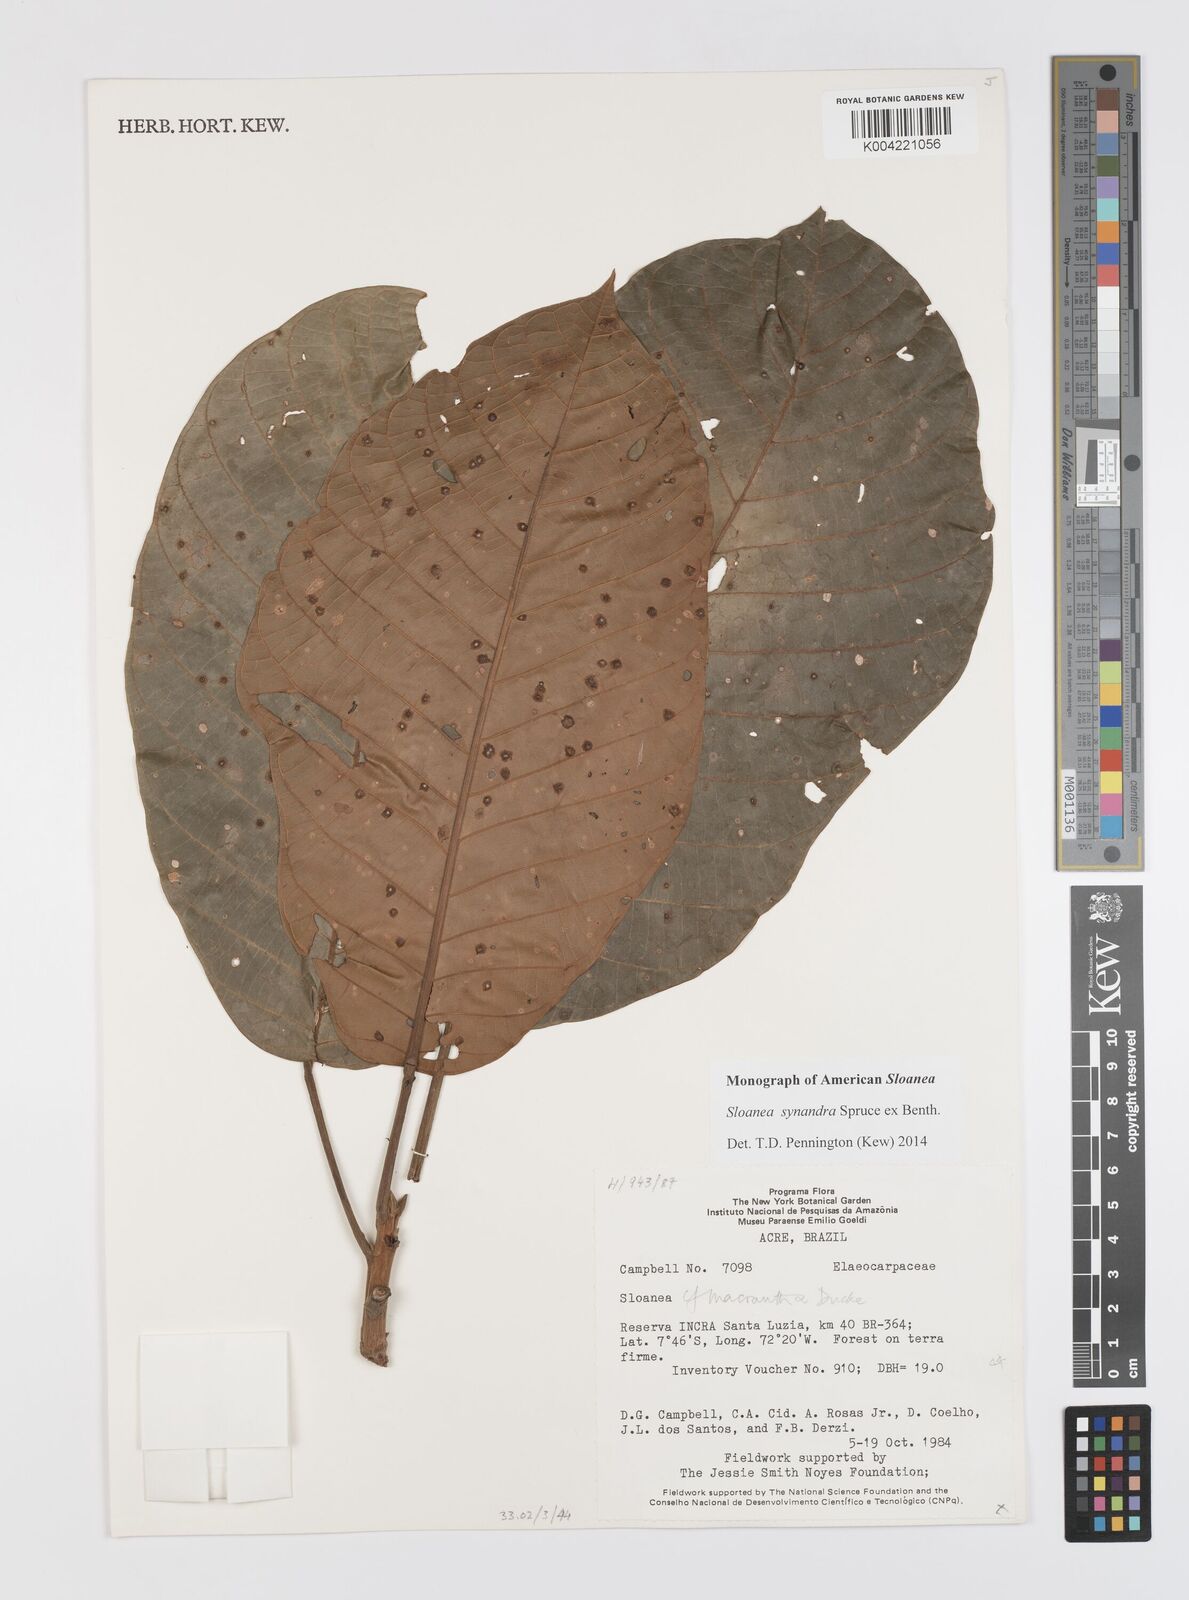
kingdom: Plantae
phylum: Tracheophyta
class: Magnoliopsida
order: Oxalidales
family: Elaeocarpaceae
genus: Sloanea
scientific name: Sloanea synandra
